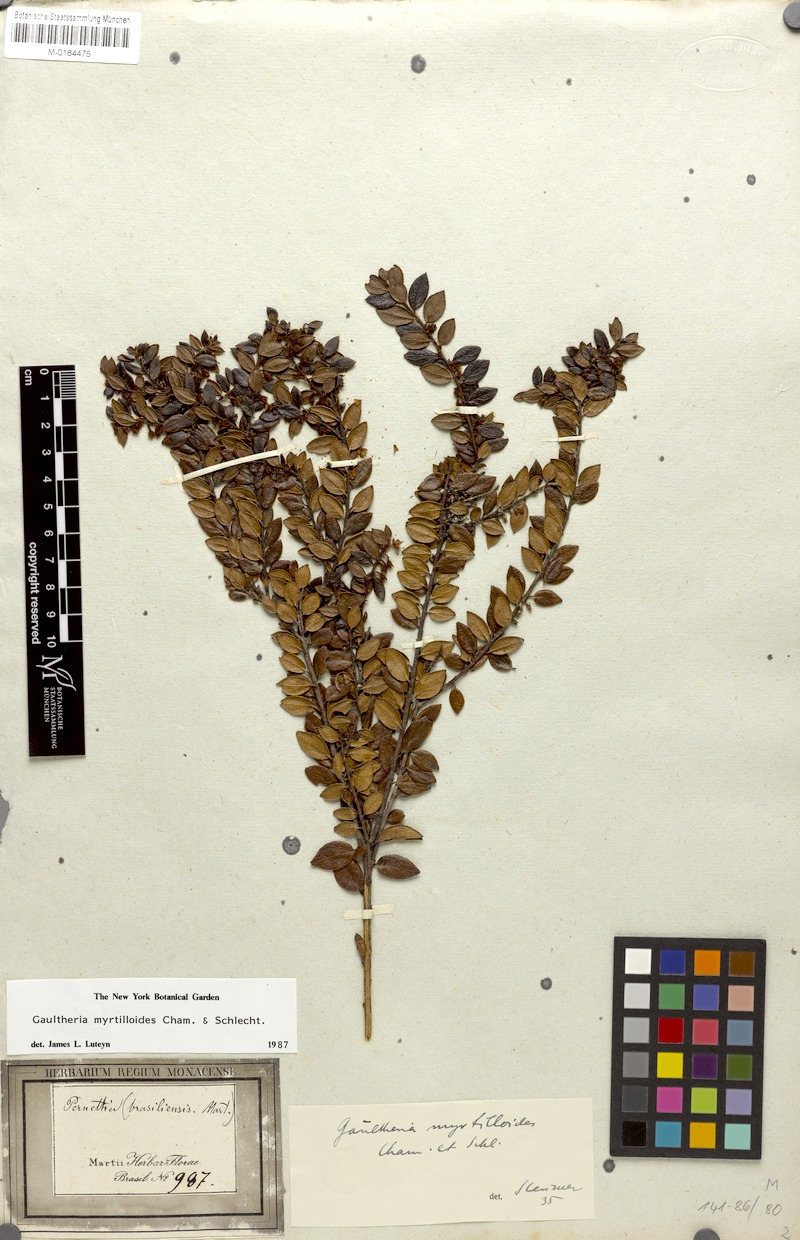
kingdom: Plantae
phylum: Tracheophyta
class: Magnoliopsida
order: Ericales
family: Ericaceae
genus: Gaultheria
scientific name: Gaultheria myrtilloides
